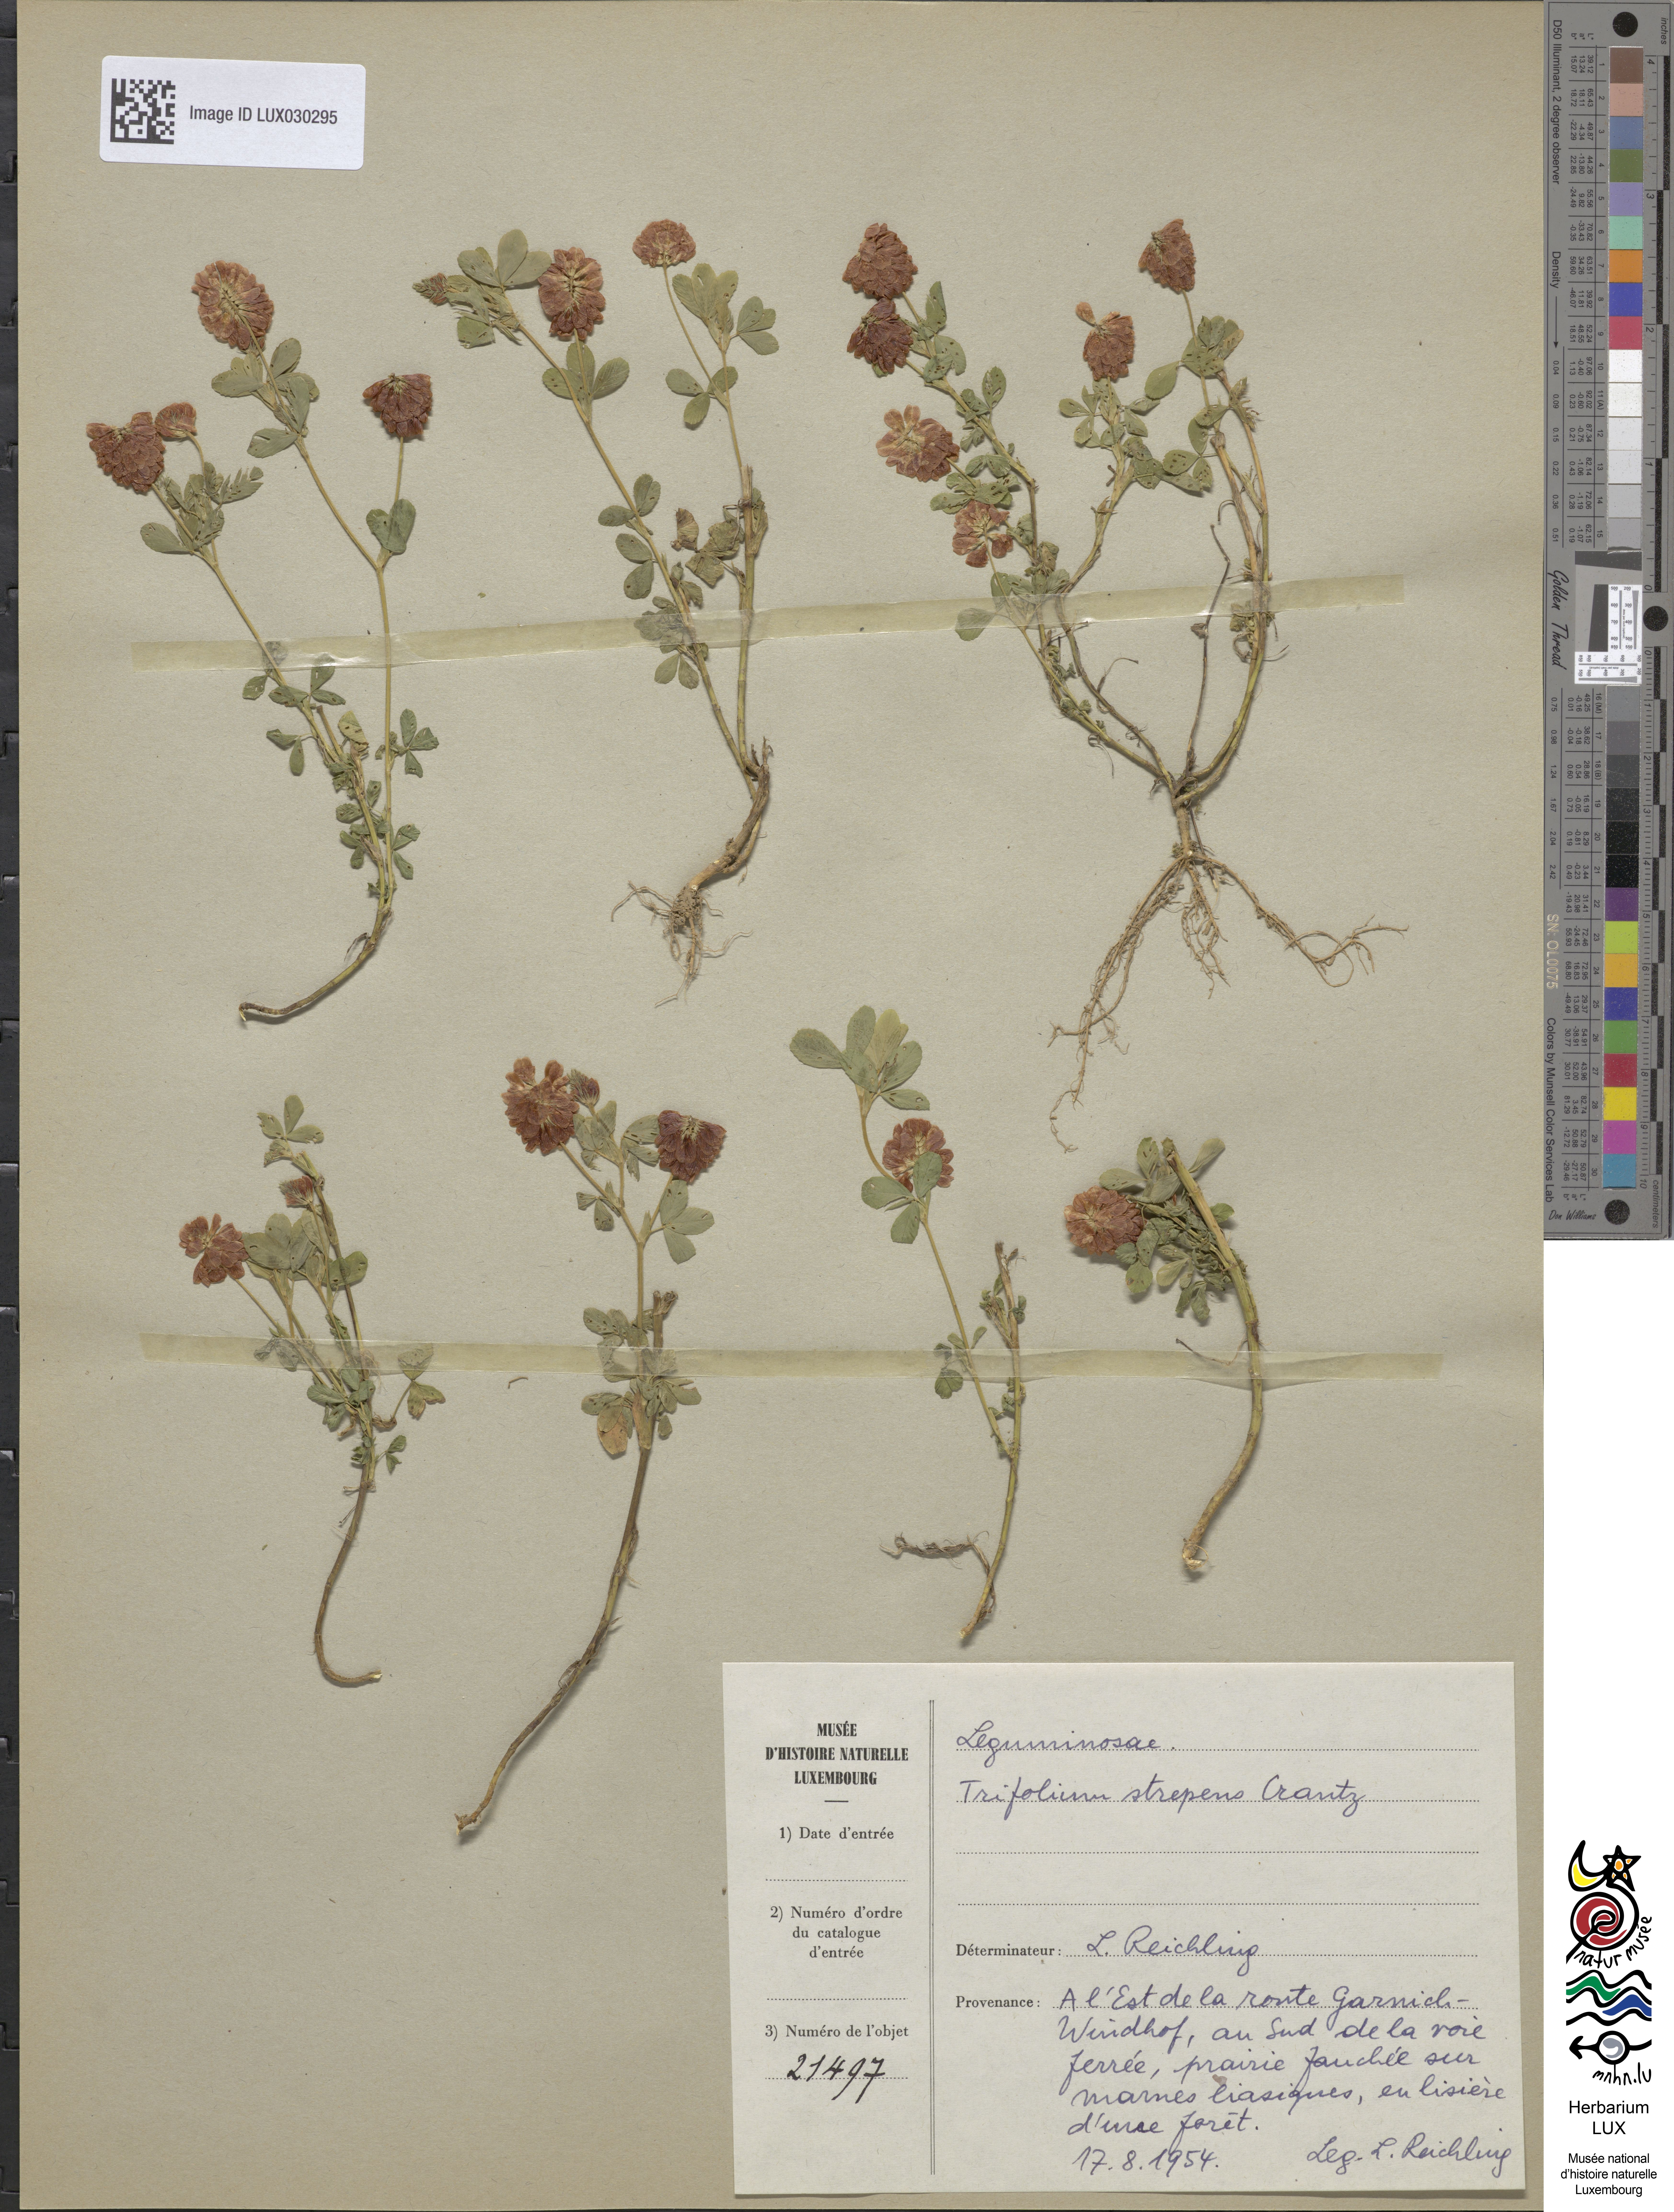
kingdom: Plantae
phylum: Tracheophyta
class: Magnoliopsida
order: Fabales
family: Fabaceae
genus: Trifolium
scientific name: Trifolium aureum
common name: Golden clover
